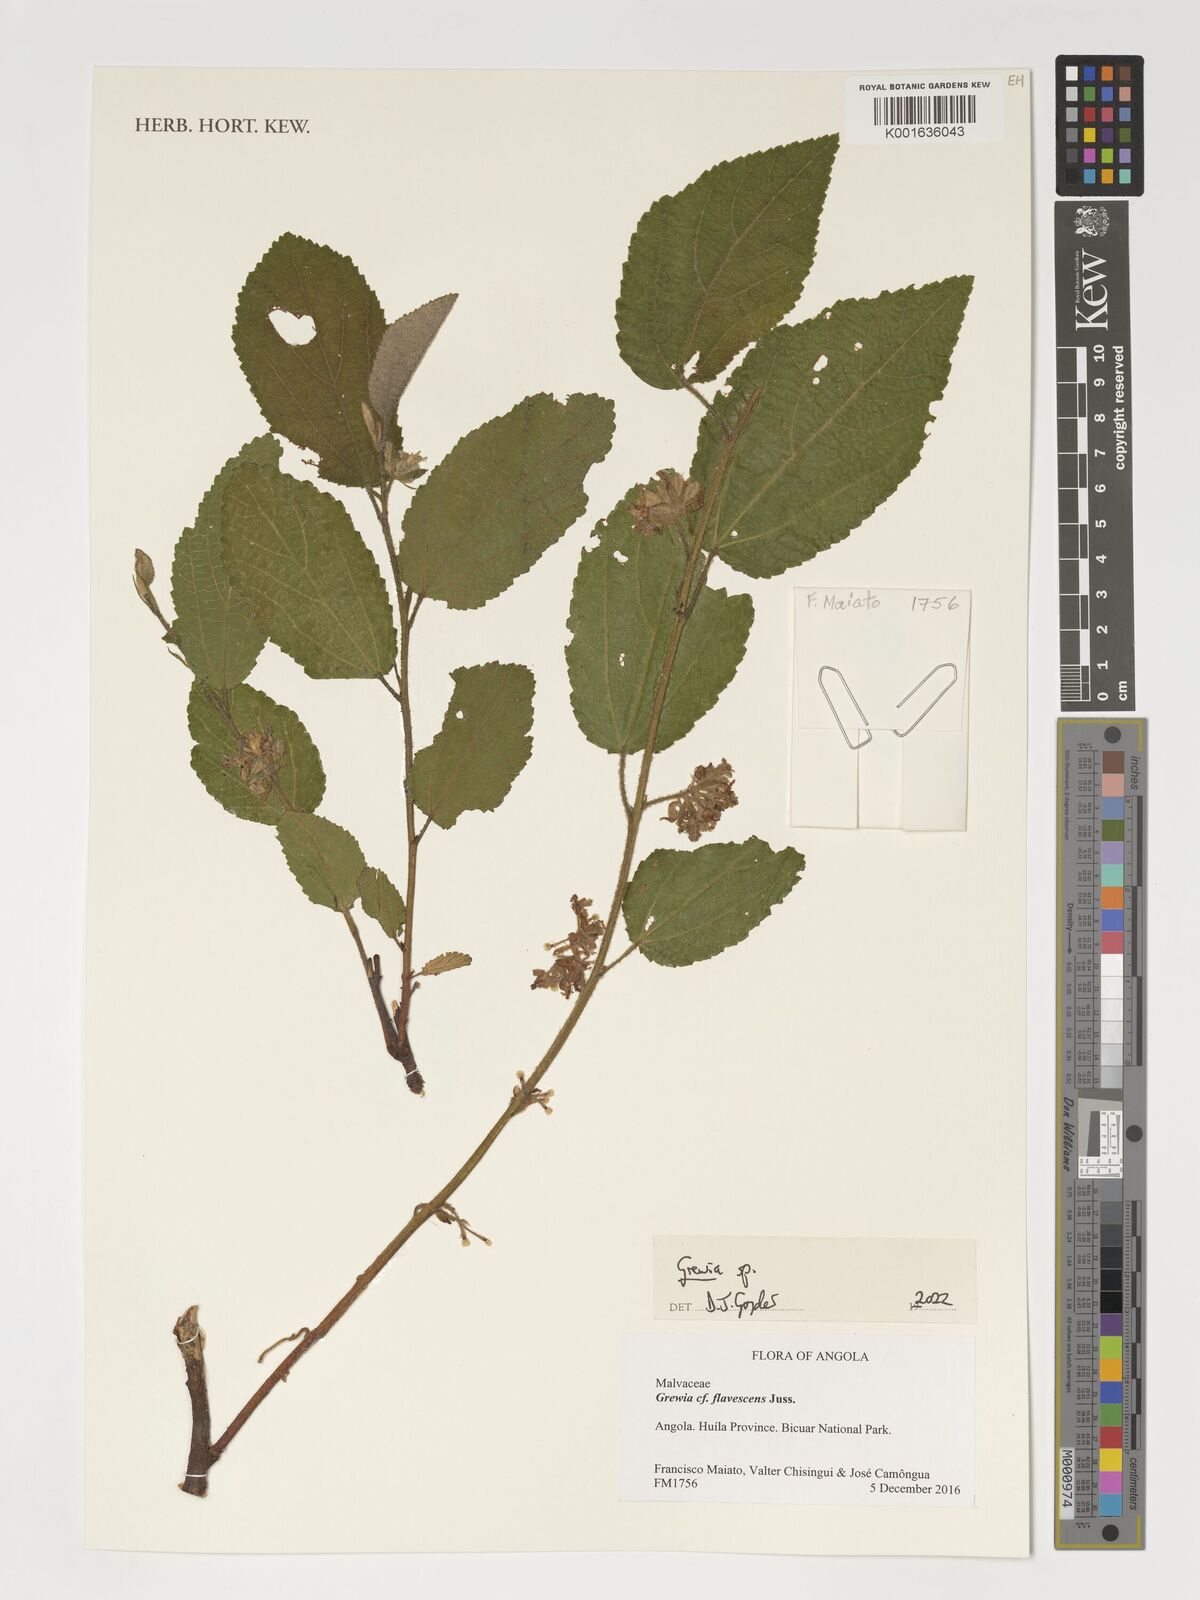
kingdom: Plantae
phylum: Tracheophyta
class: Magnoliopsida
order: Malvales
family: Malvaceae
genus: Grewia
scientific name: Grewia
